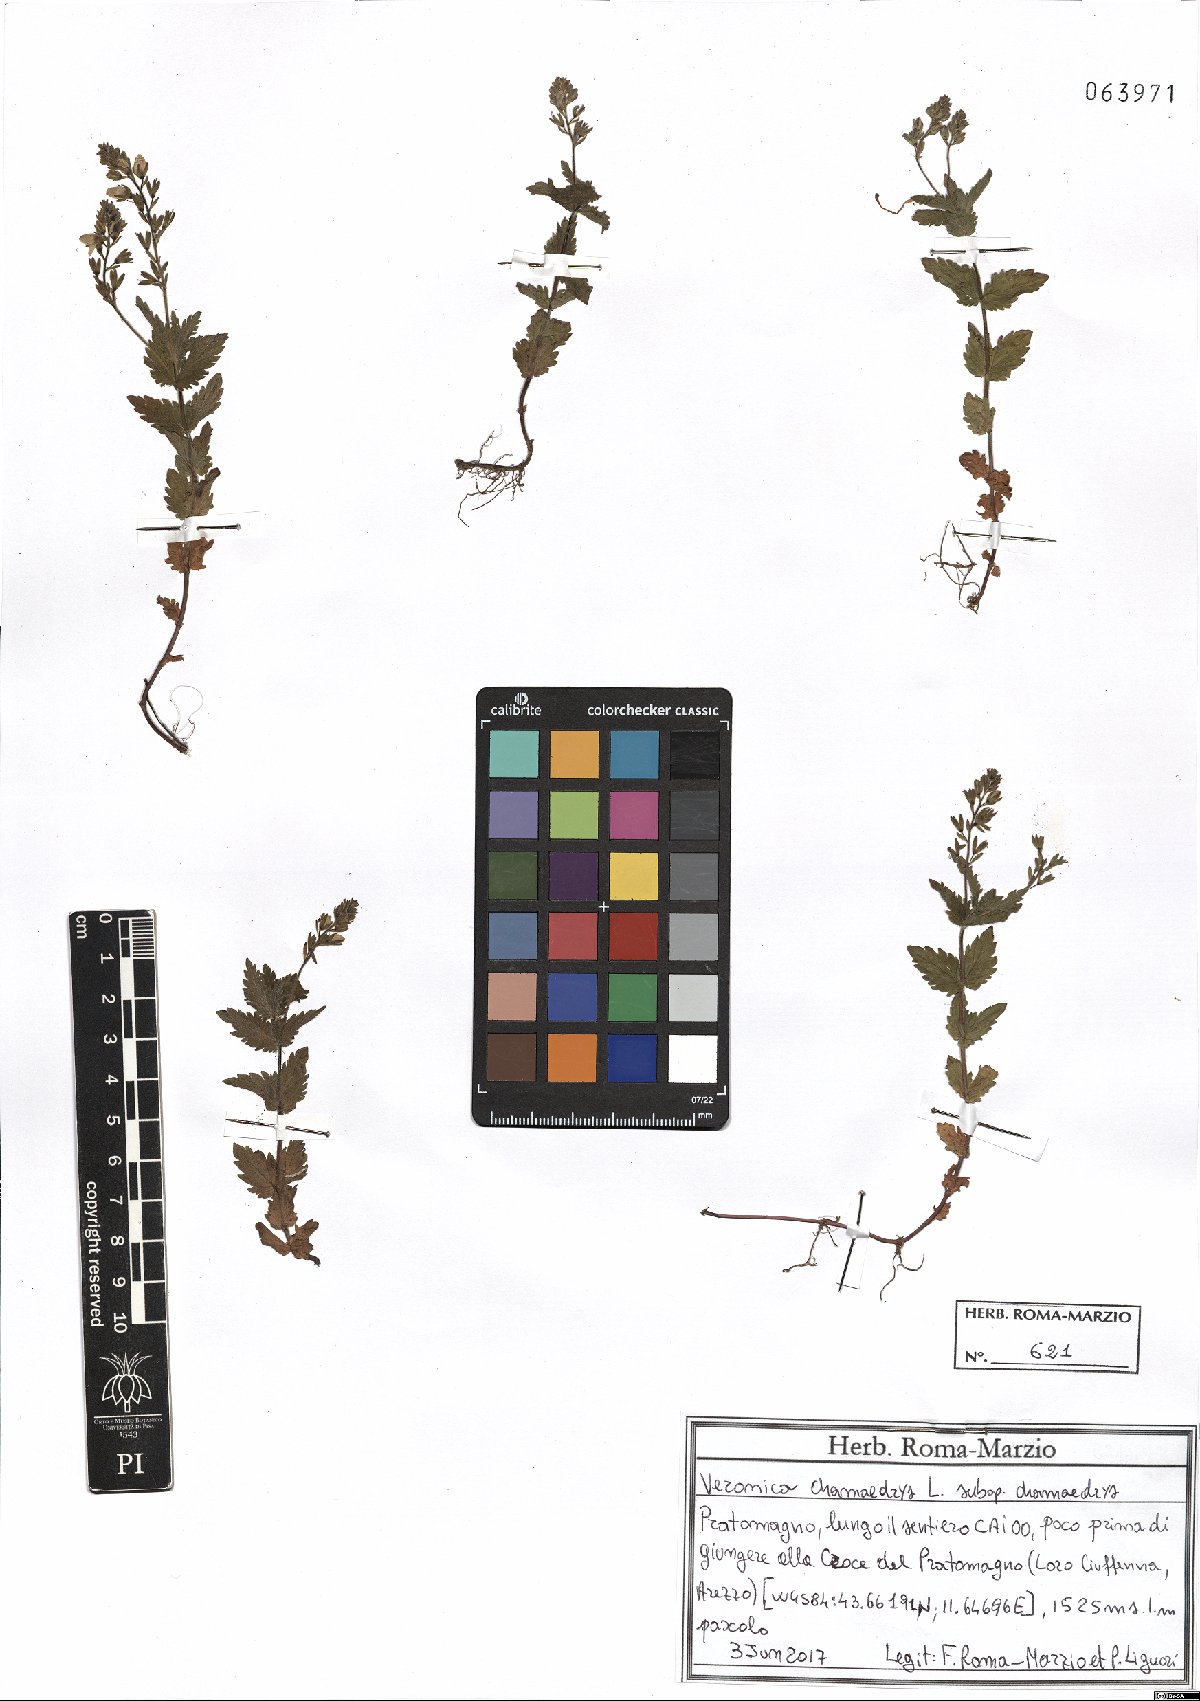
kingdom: Plantae
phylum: Tracheophyta
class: Magnoliopsida
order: Lamiales
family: Plantaginaceae
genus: Veronica
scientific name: Veronica chamaedrys
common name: Germander speedwell
